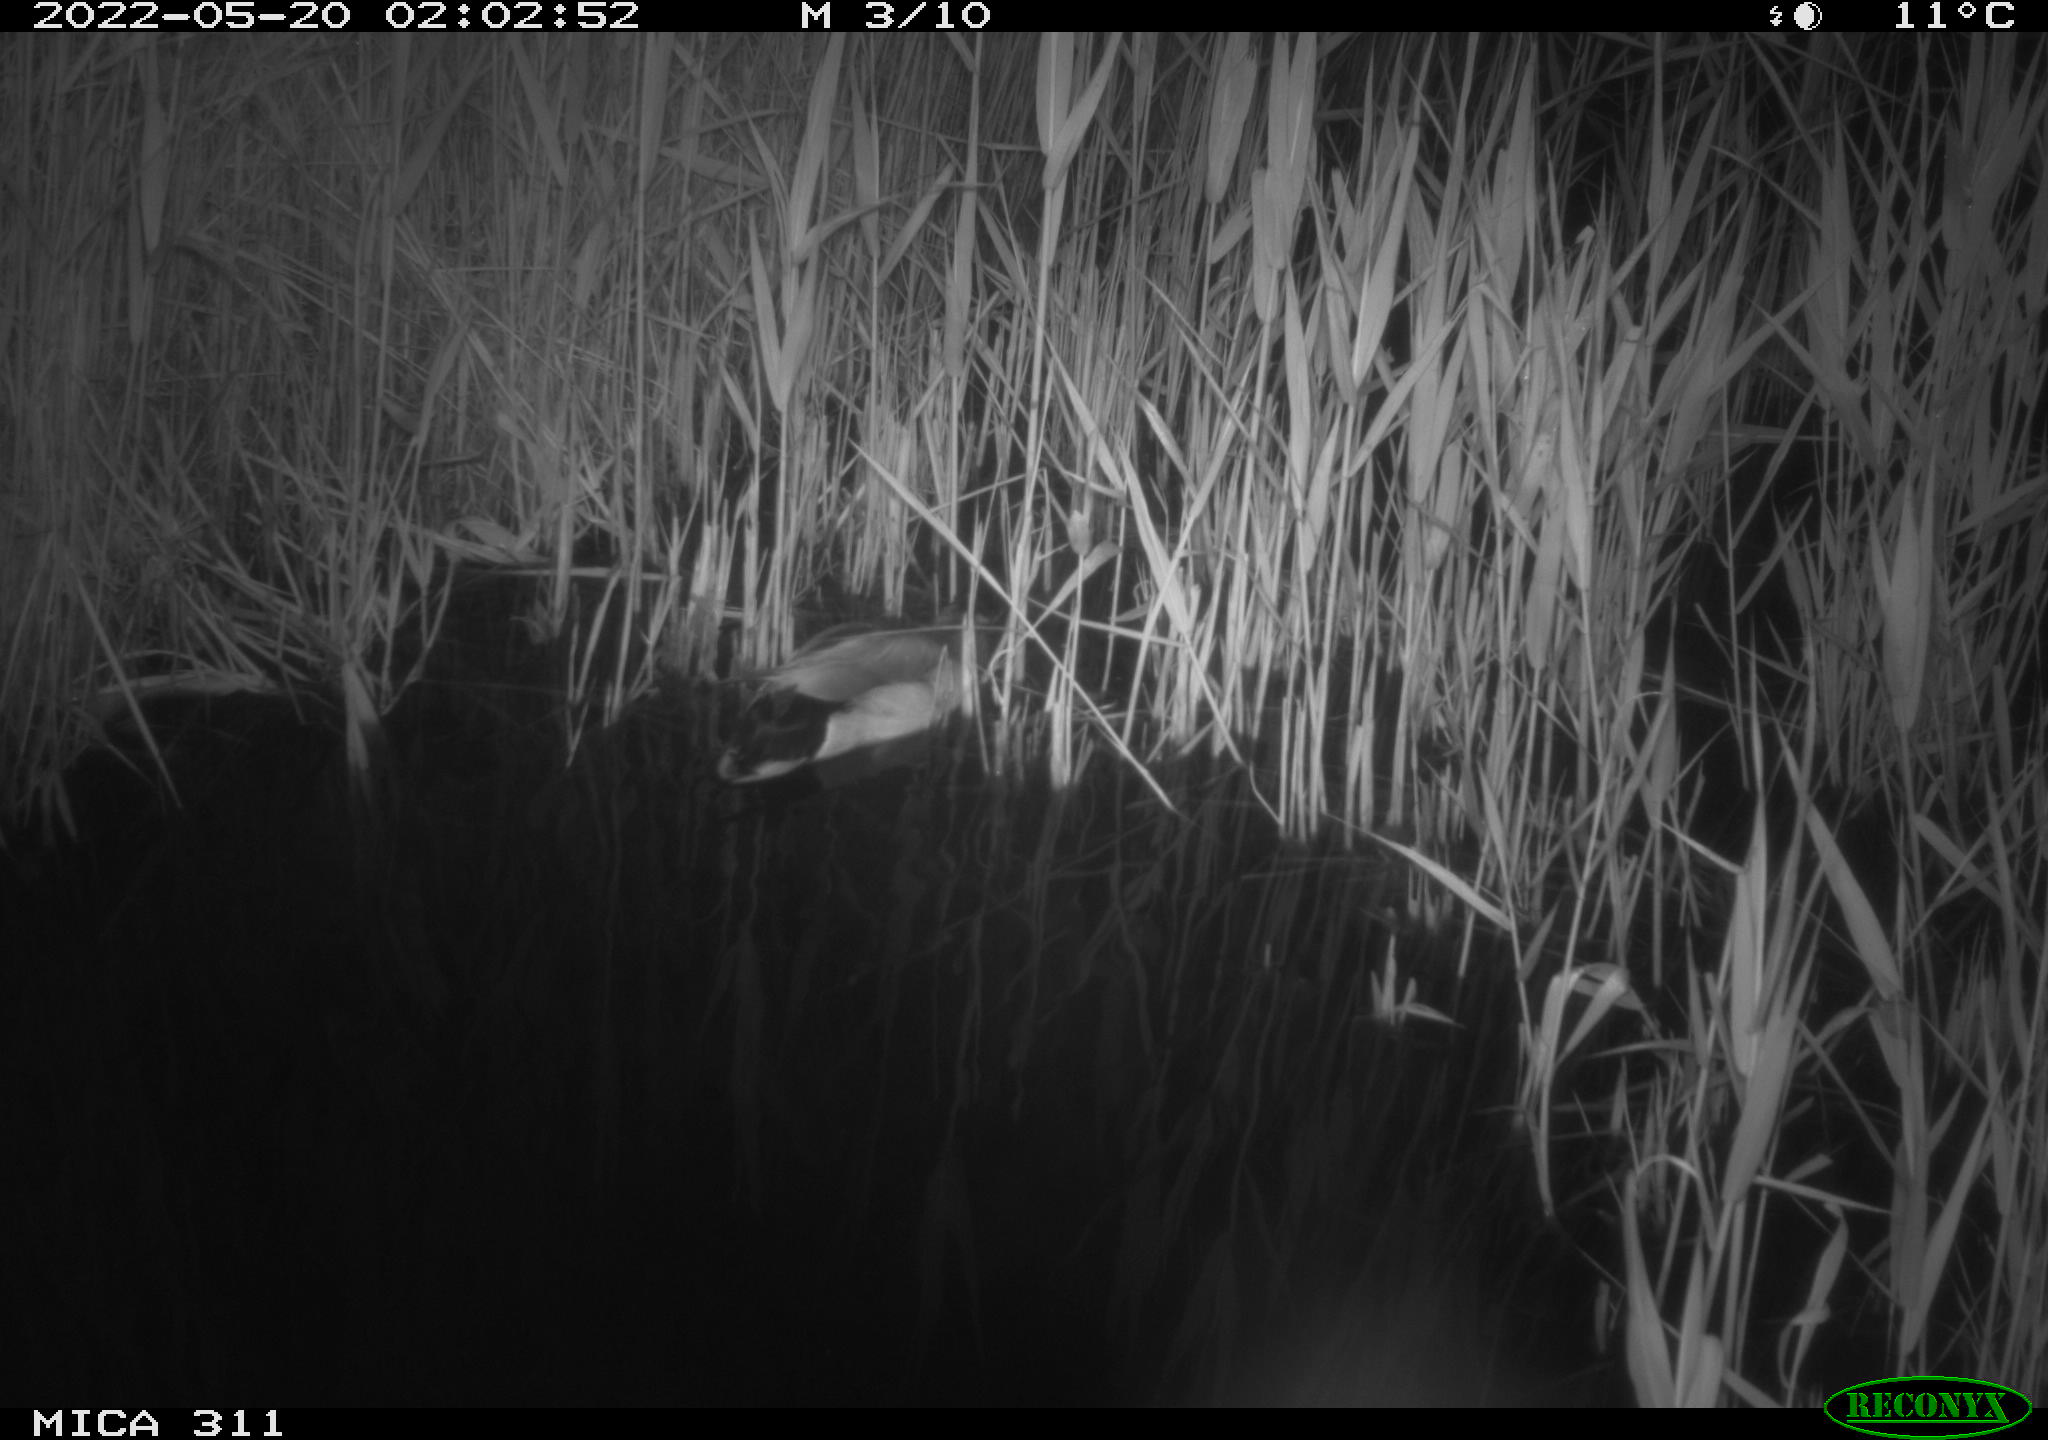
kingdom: Animalia
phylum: Chordata
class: Aves
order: Anseriformes
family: Anatidae
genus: Anas
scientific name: Anas platyrhynchos
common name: Mallard
